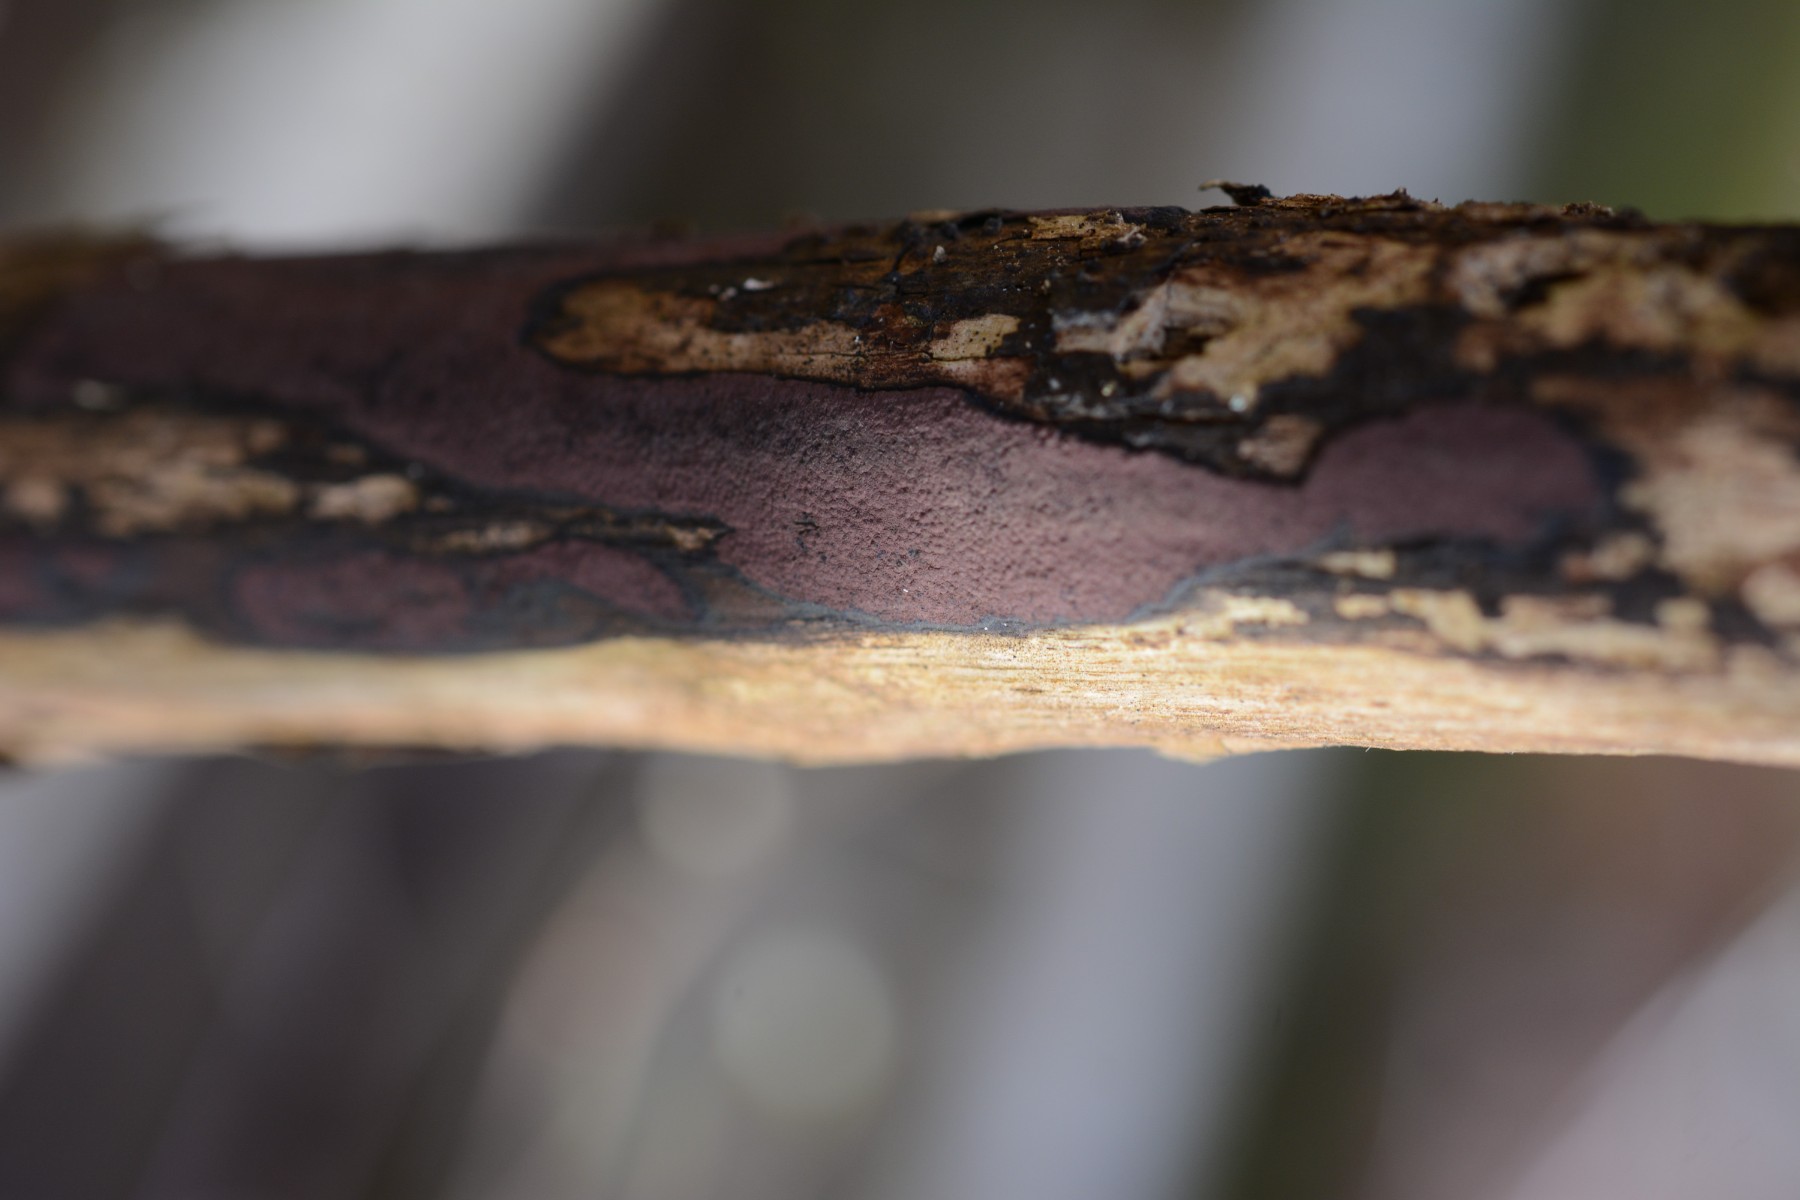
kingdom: Fungi
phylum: Ascomycota
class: Sordariomycetes
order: Xylariales
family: Hypoxylaceae
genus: Hypoxylon
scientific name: Hypoxylon petriniae
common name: nedsænket kulbær
